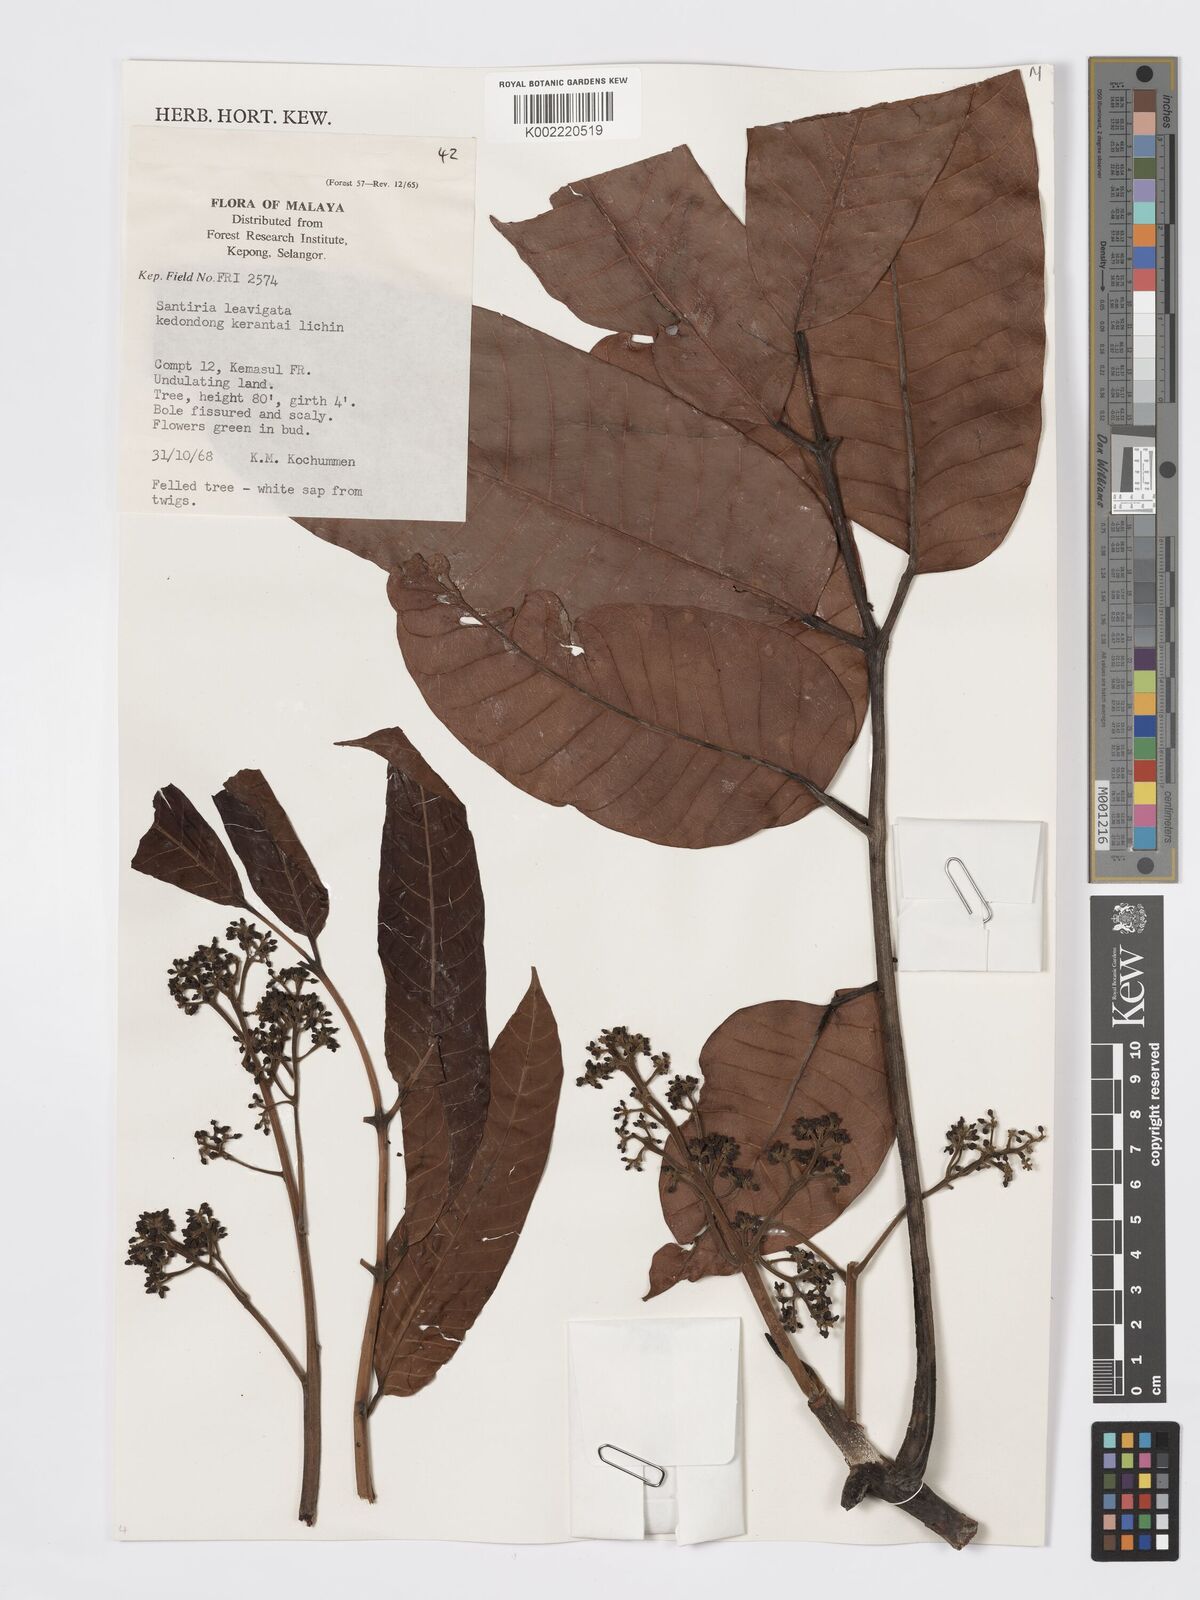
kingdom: Plantae
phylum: Tracheophyta
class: Magnoliopsida
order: Sapindales
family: Burseraceae
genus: Santiria
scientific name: Santiria laevigata
